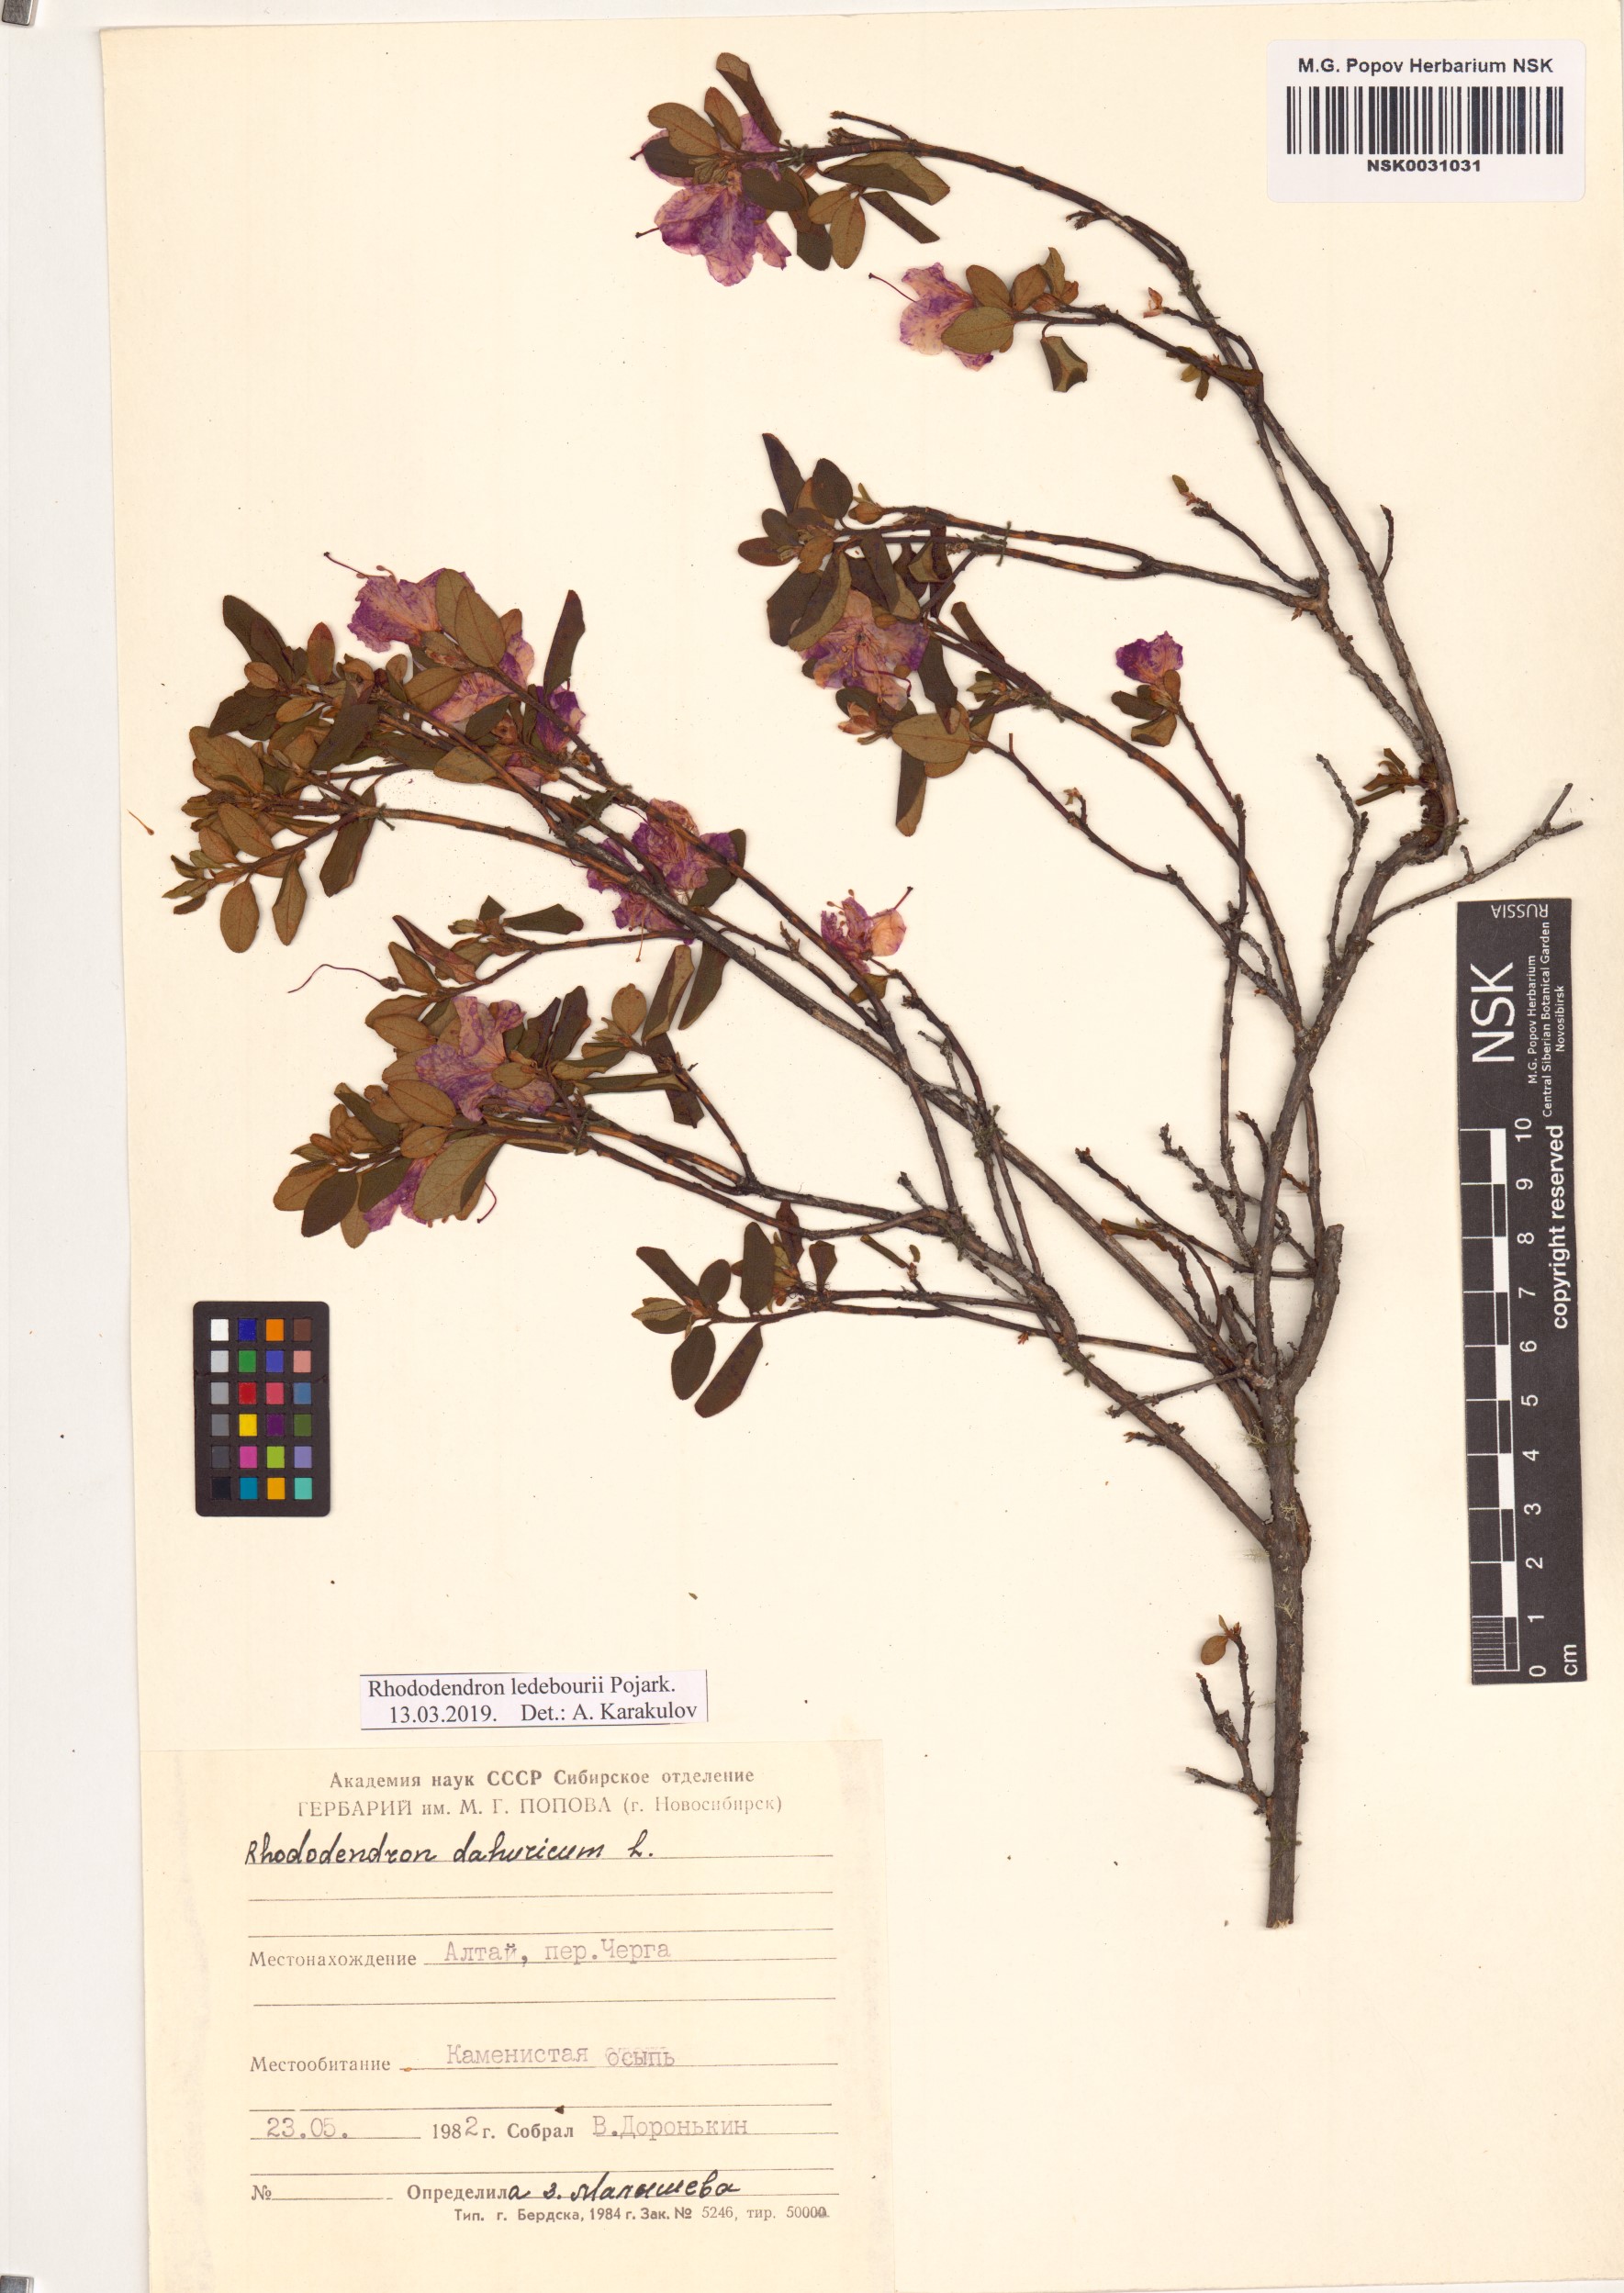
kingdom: Plantae
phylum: Tracheophyta
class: Magnoliopsida
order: Ericales
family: Ericaceae
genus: Rhododendron
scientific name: Rhododendron dauricum
